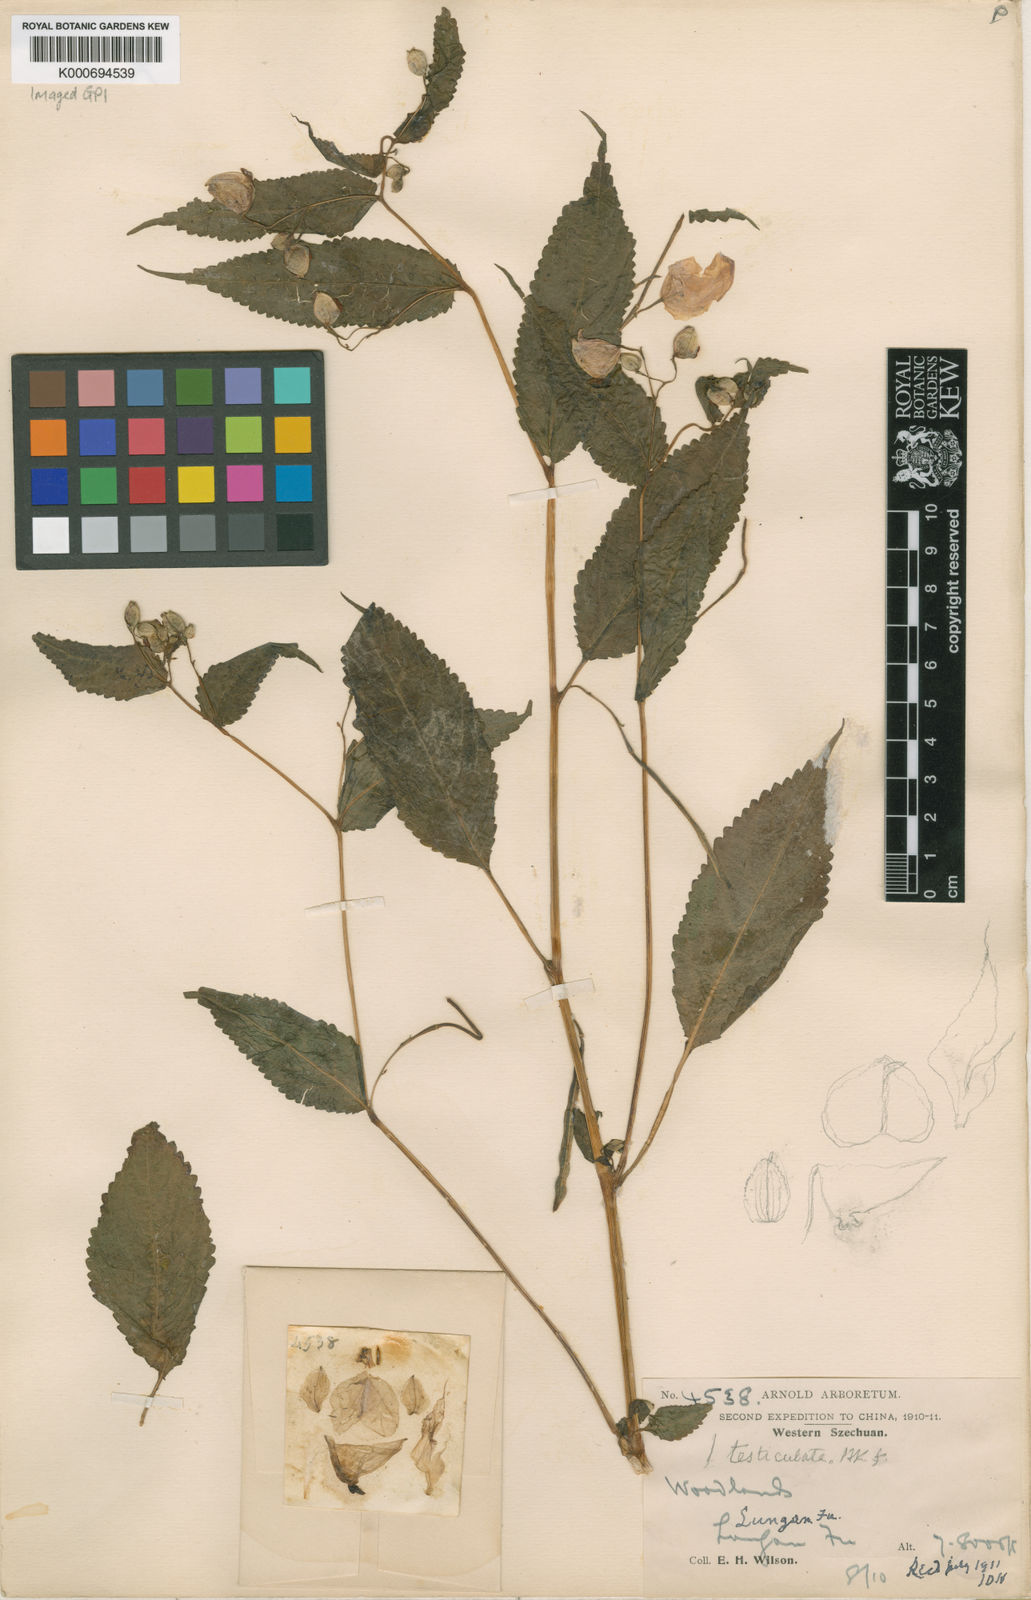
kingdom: Plantae
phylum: Tracheophyta
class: Magnoliopsida
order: Ericales
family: Balsaminaceae
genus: Impatiens
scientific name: Impatiens
